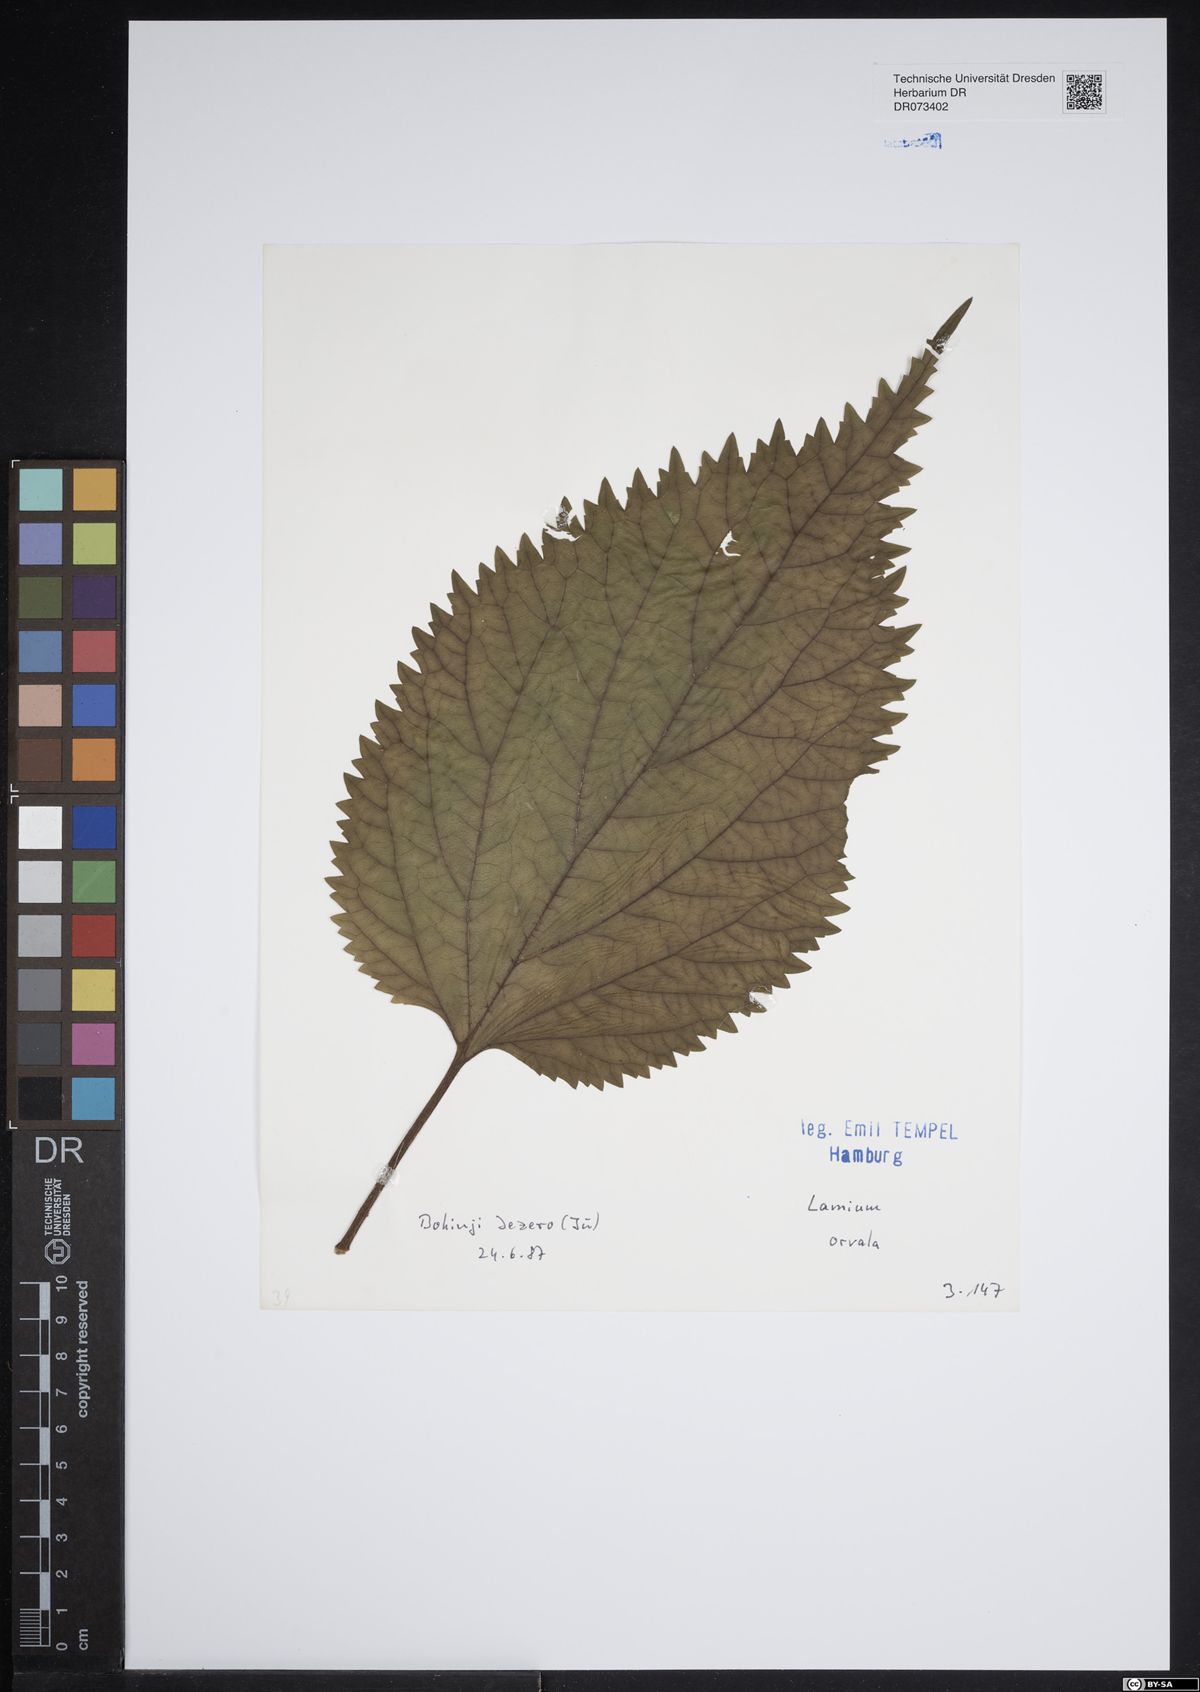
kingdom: Plantae
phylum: Tracheophyta
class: Magnoliopsida
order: Lamiales
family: Lamiaceae
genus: Lamium
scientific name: Lamium orvala
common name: Balm-leaved archangel
